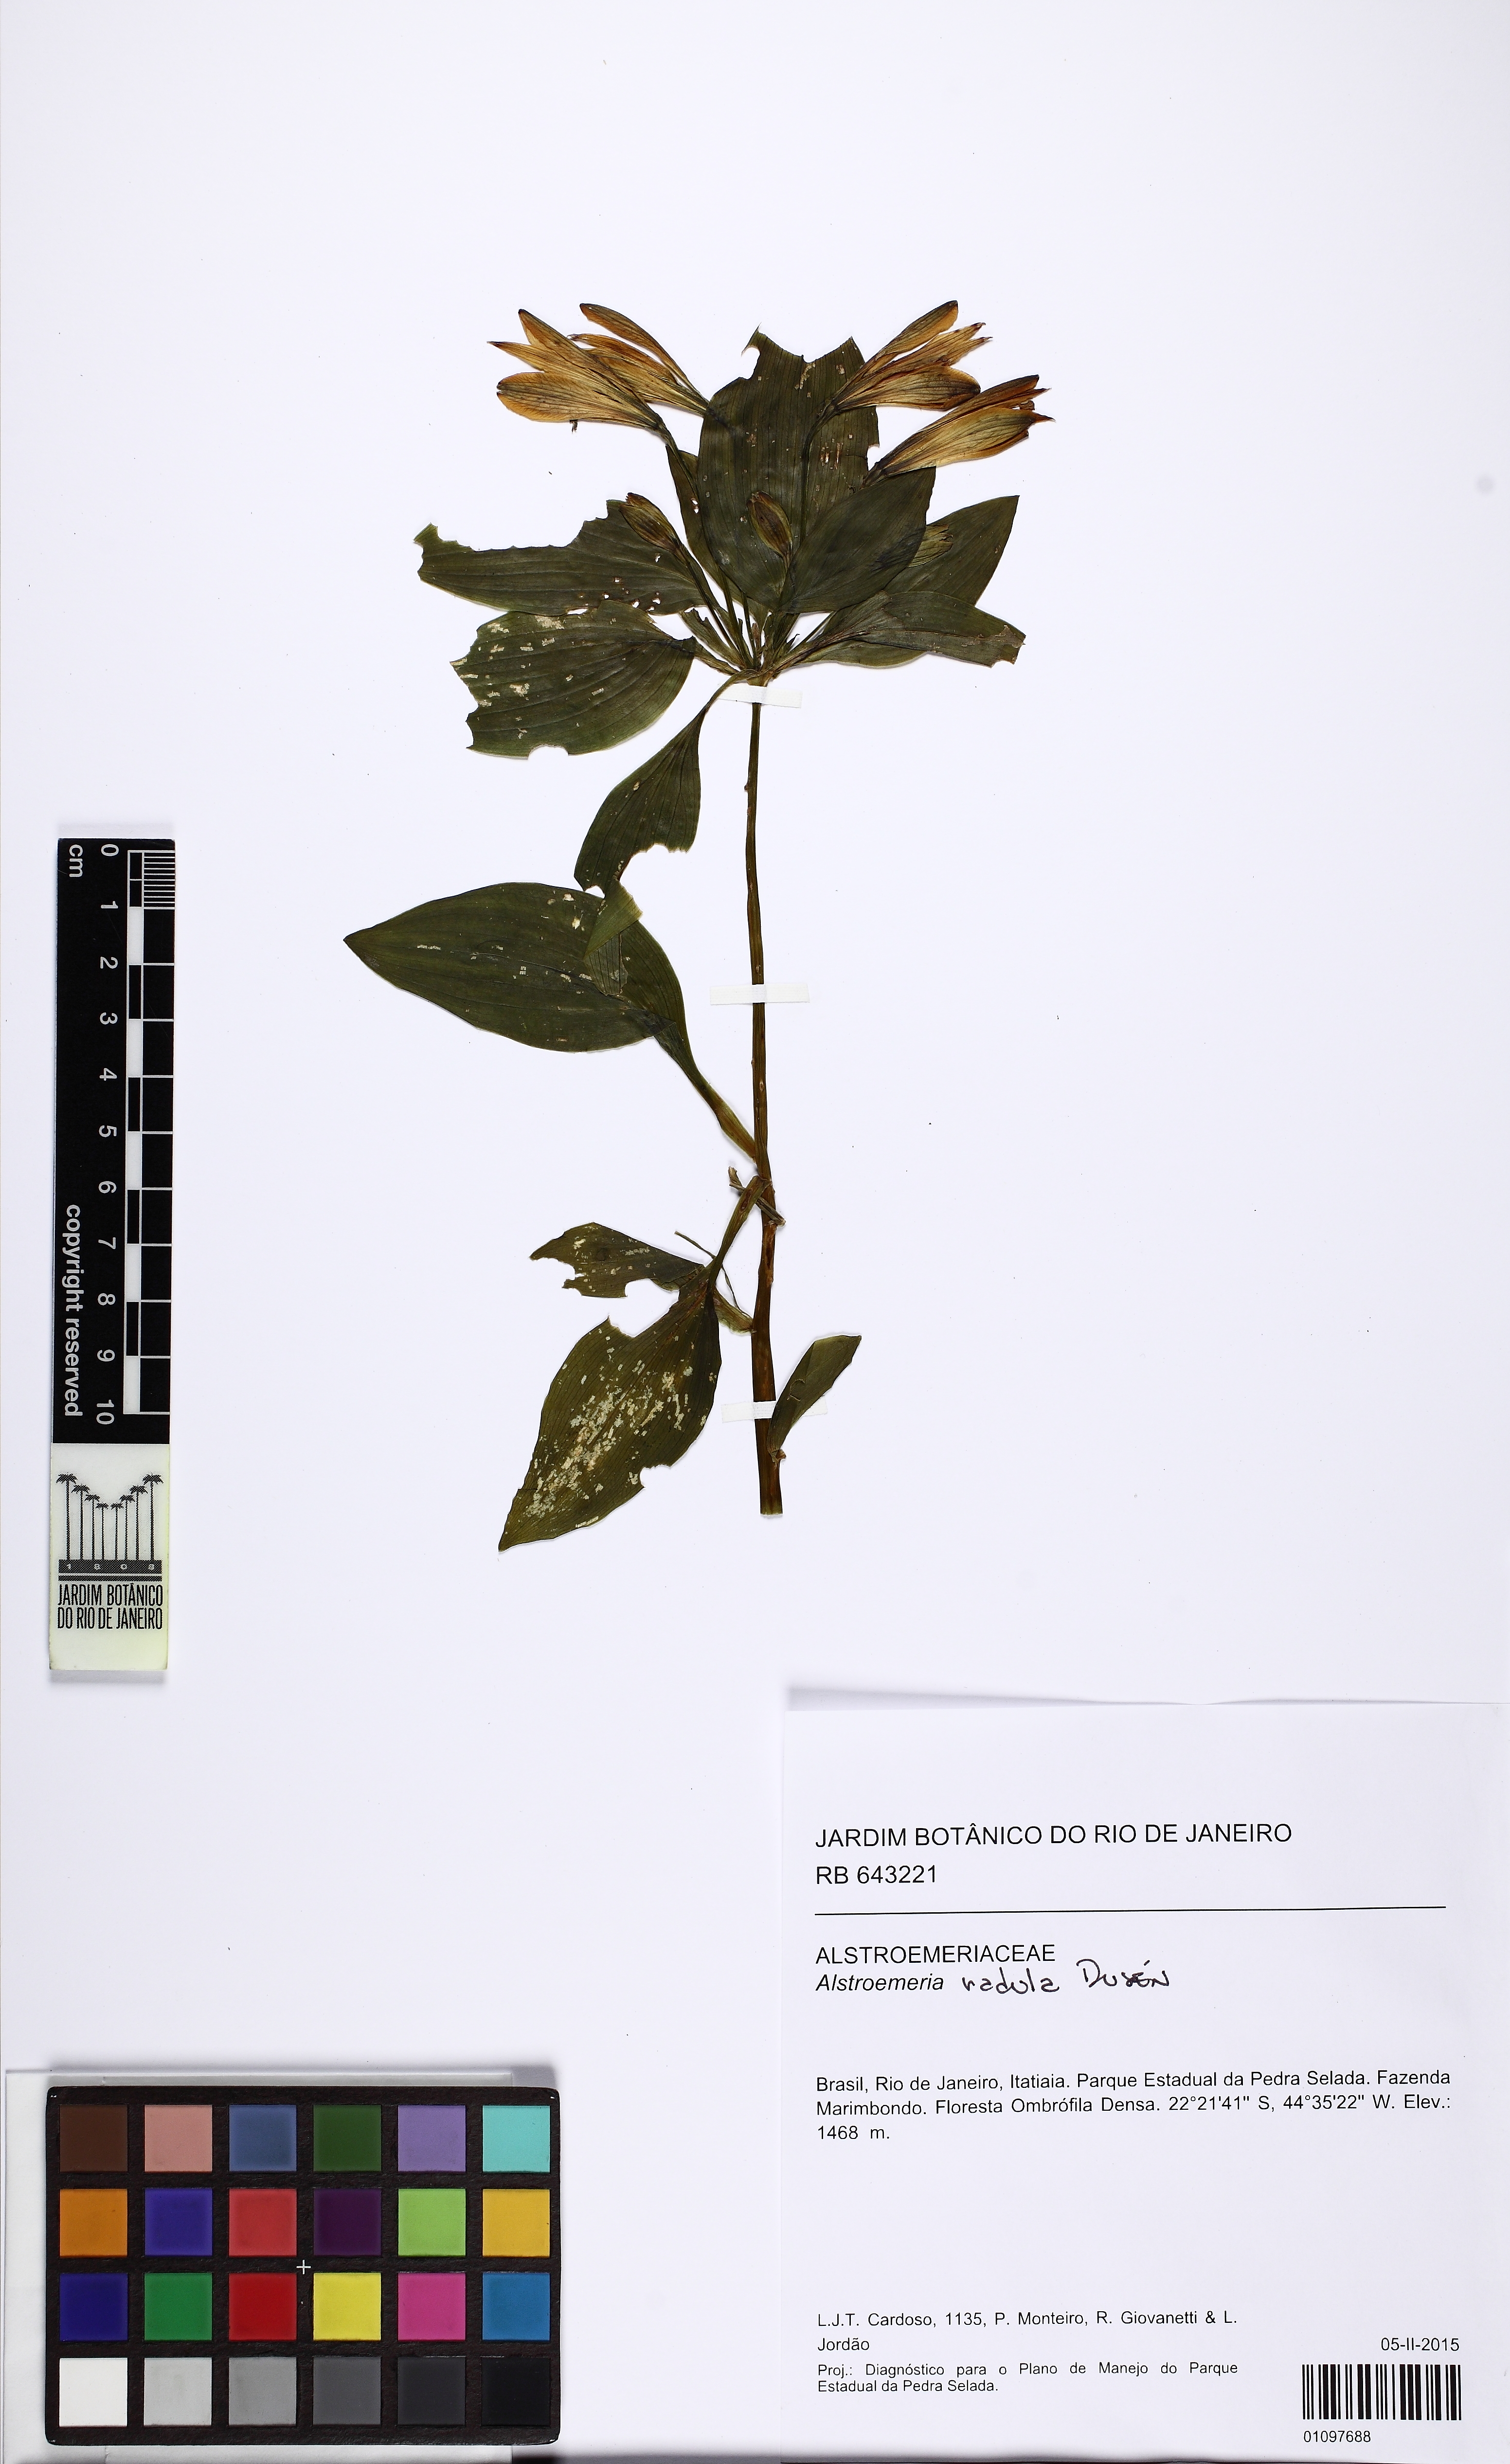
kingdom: Plantae
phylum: Tracheophyta
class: Liliopsida
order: Liliales
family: Alstroemeriaceae
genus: Alstroemeria
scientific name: Alstroemeria radula
